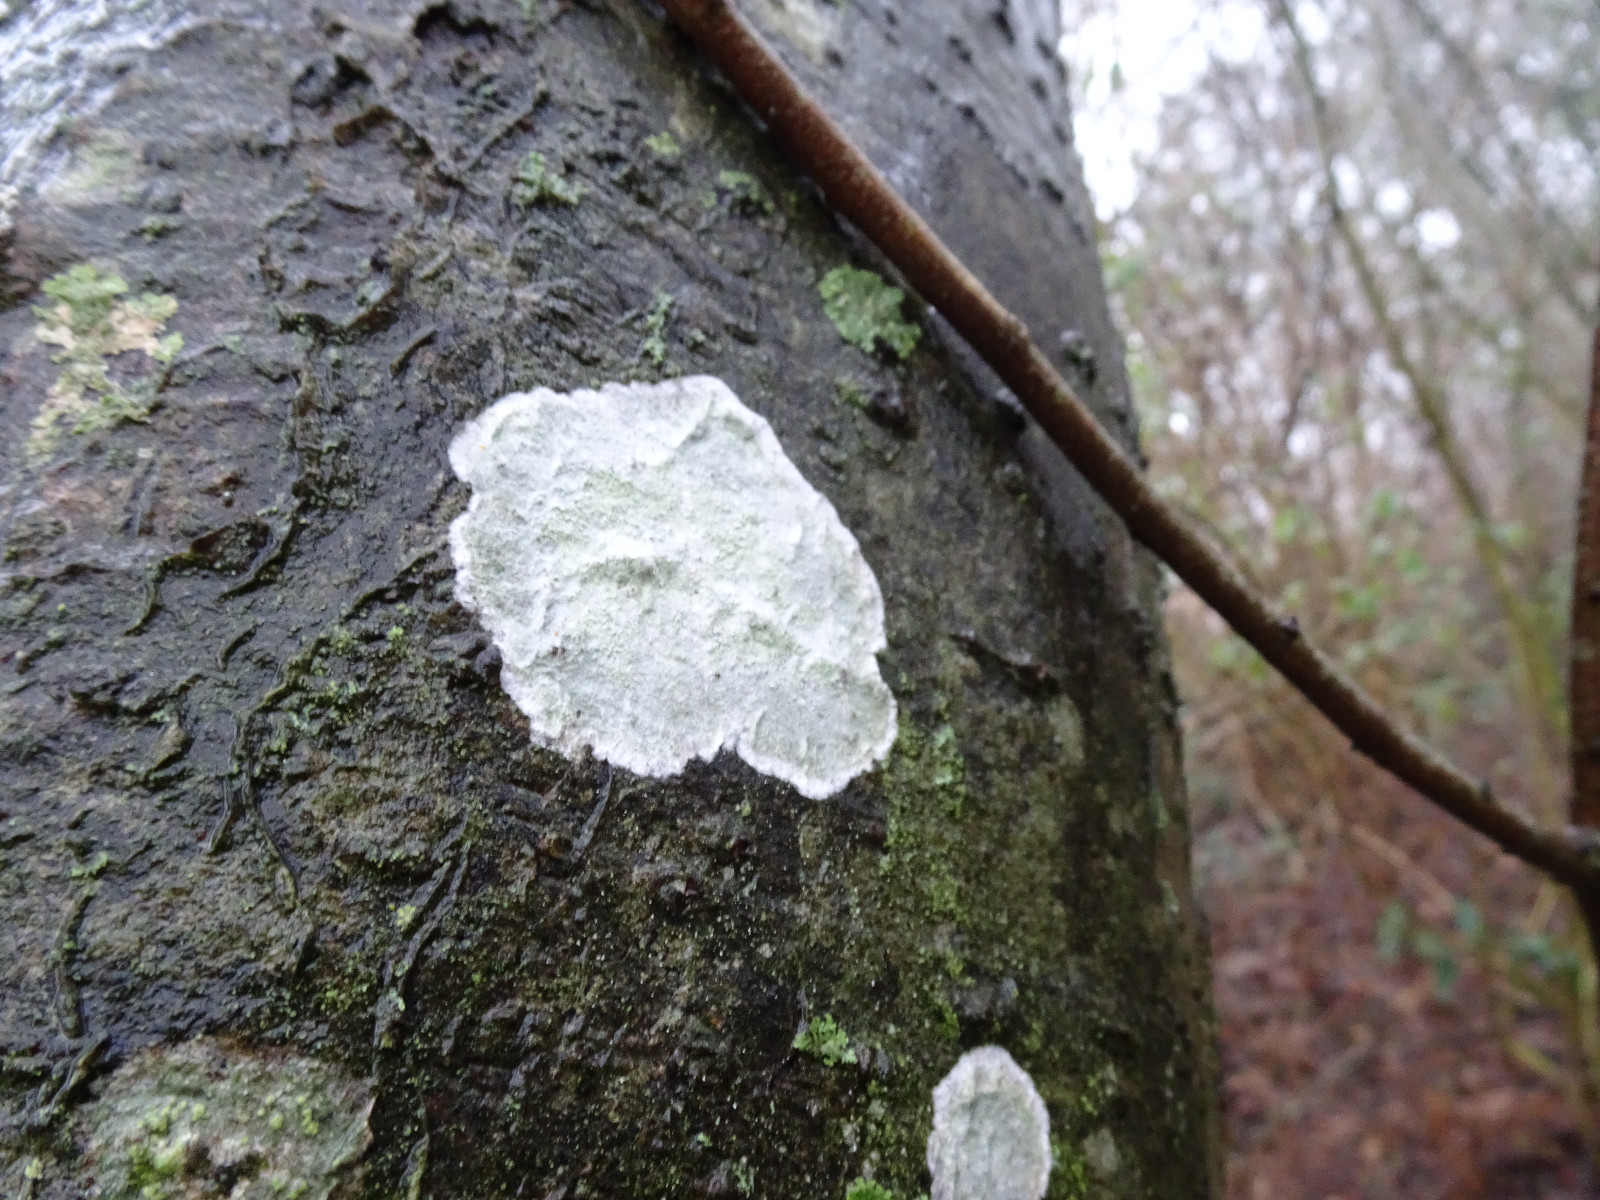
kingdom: Fungi
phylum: Ascomycota
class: Lecanoromycetes
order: Ostropales
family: Phlyctidaceae
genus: Phlyctis
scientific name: Phlyctis argena
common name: almindelig sølvlav
